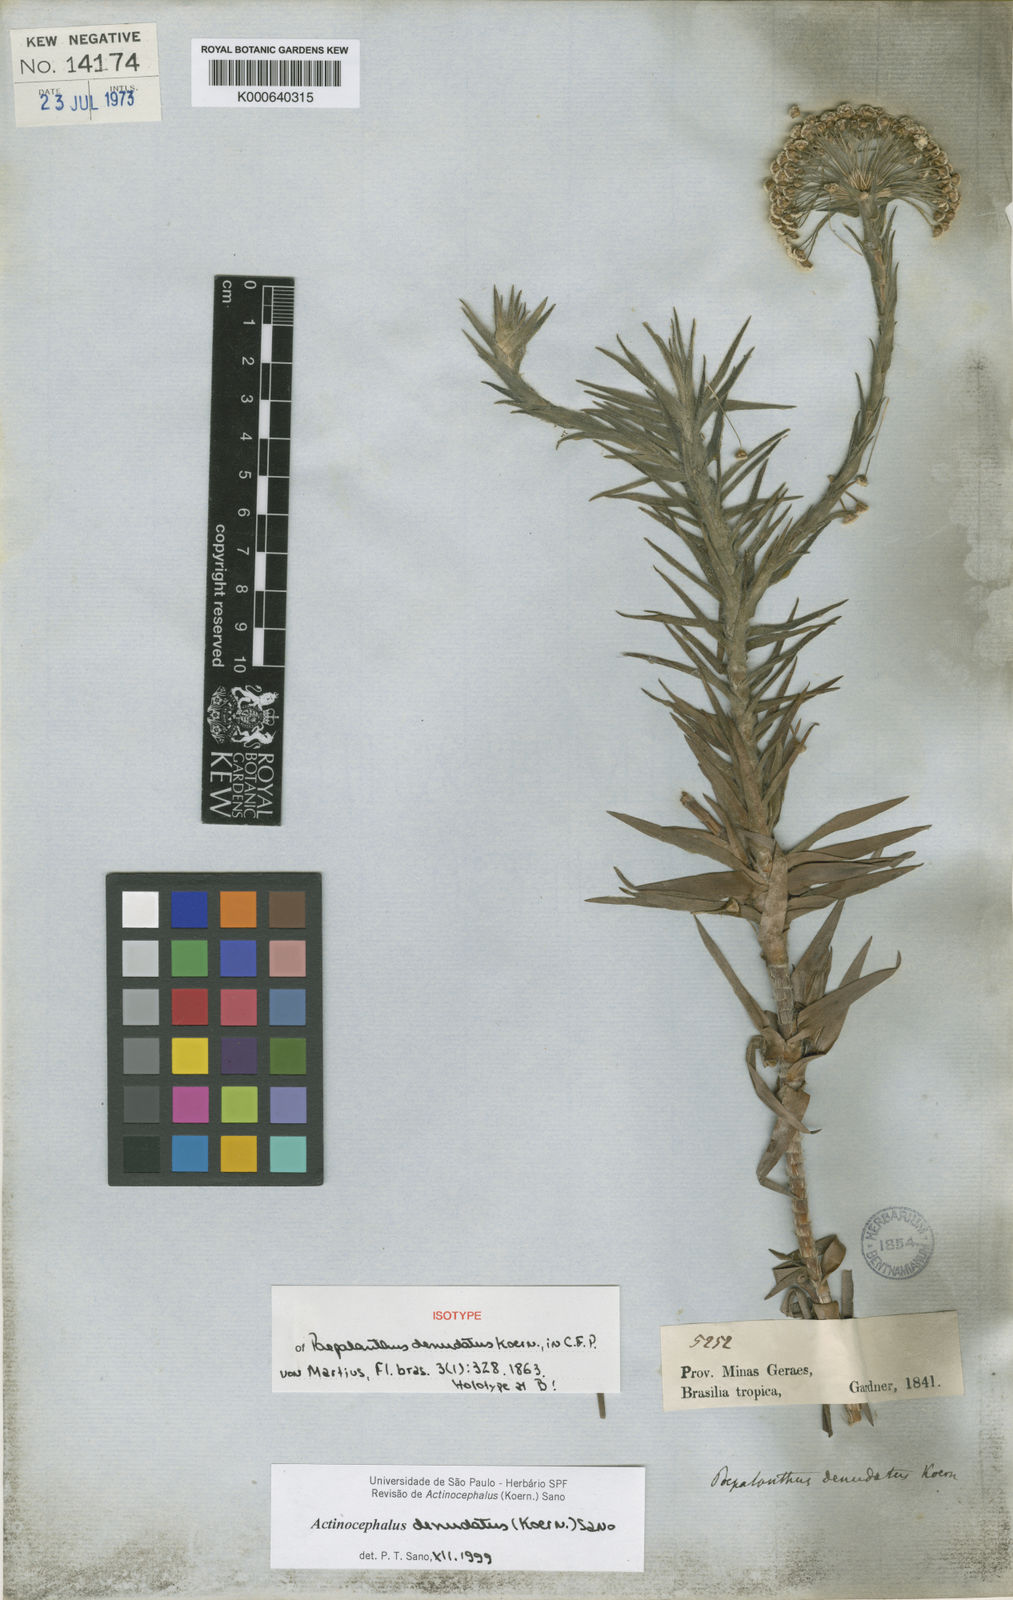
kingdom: Plantae
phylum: Tracheophyta
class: Liliopsida
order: Poales
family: Eriocaulaceae
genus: Paepalanthus
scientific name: Paepalanthus
